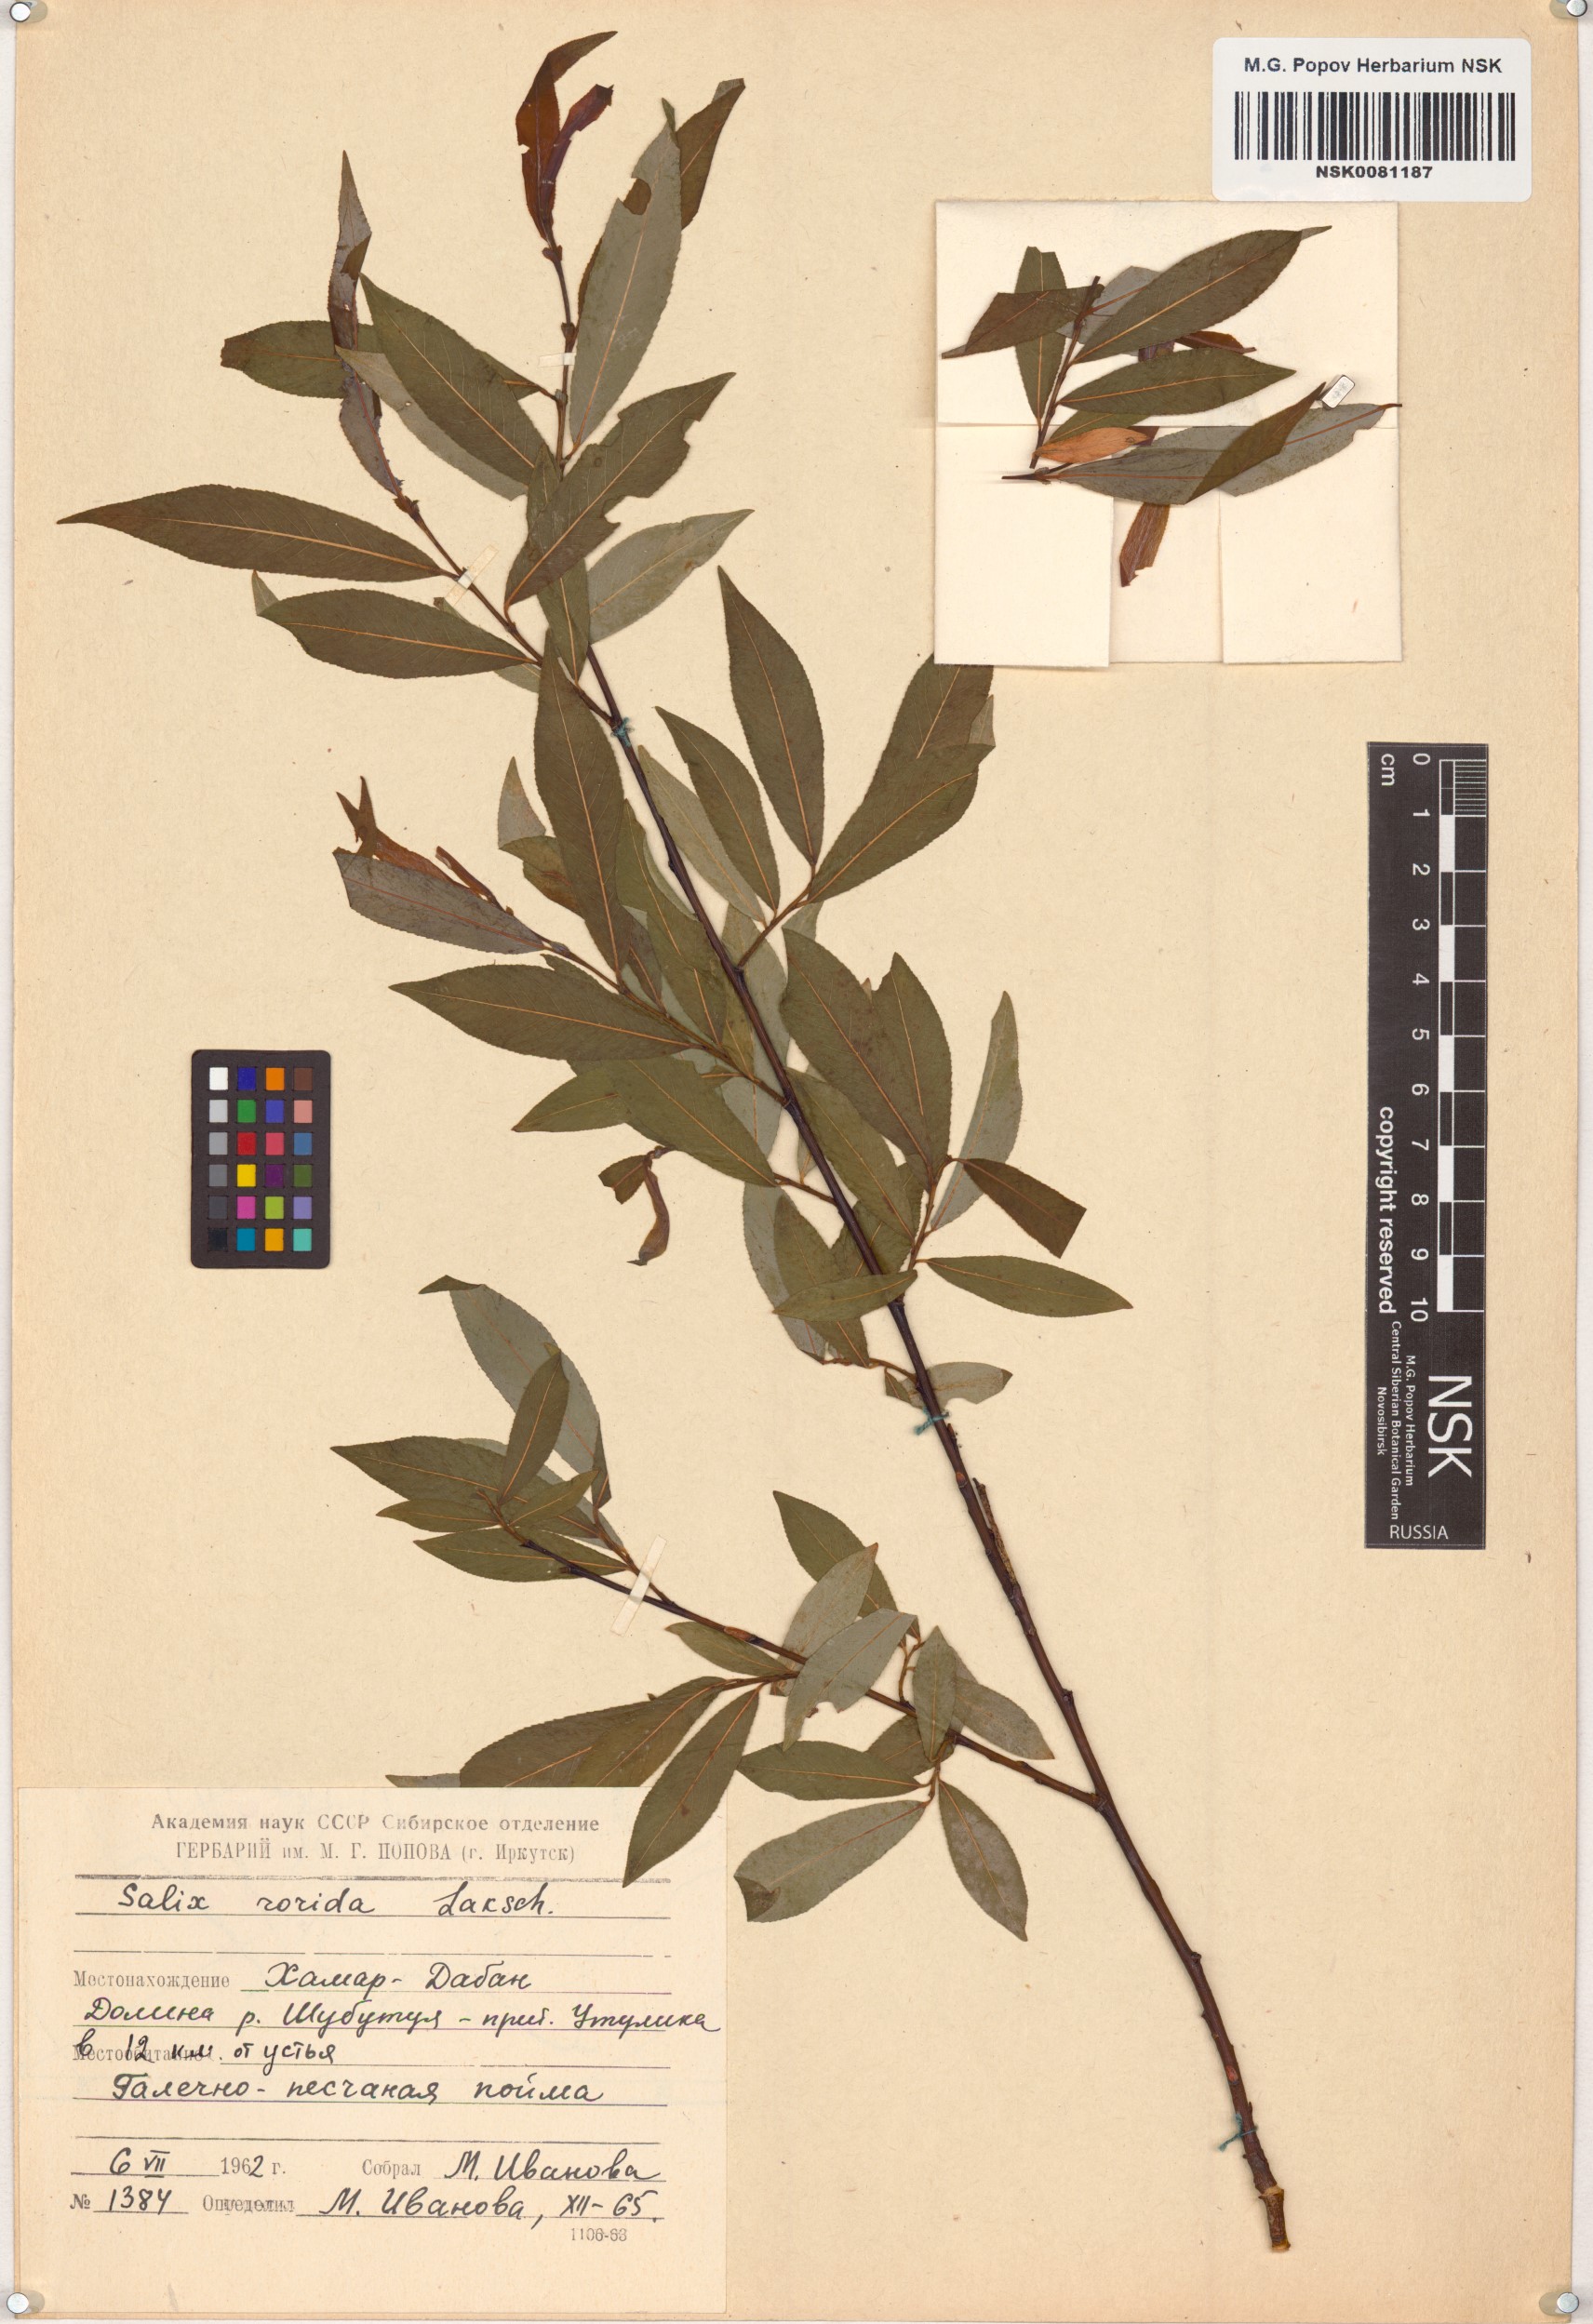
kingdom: Plantae
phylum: Tracheophyta
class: Magnoliopsida
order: Malpighiales
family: Salicaceae
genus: Salix
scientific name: Salix rorida
